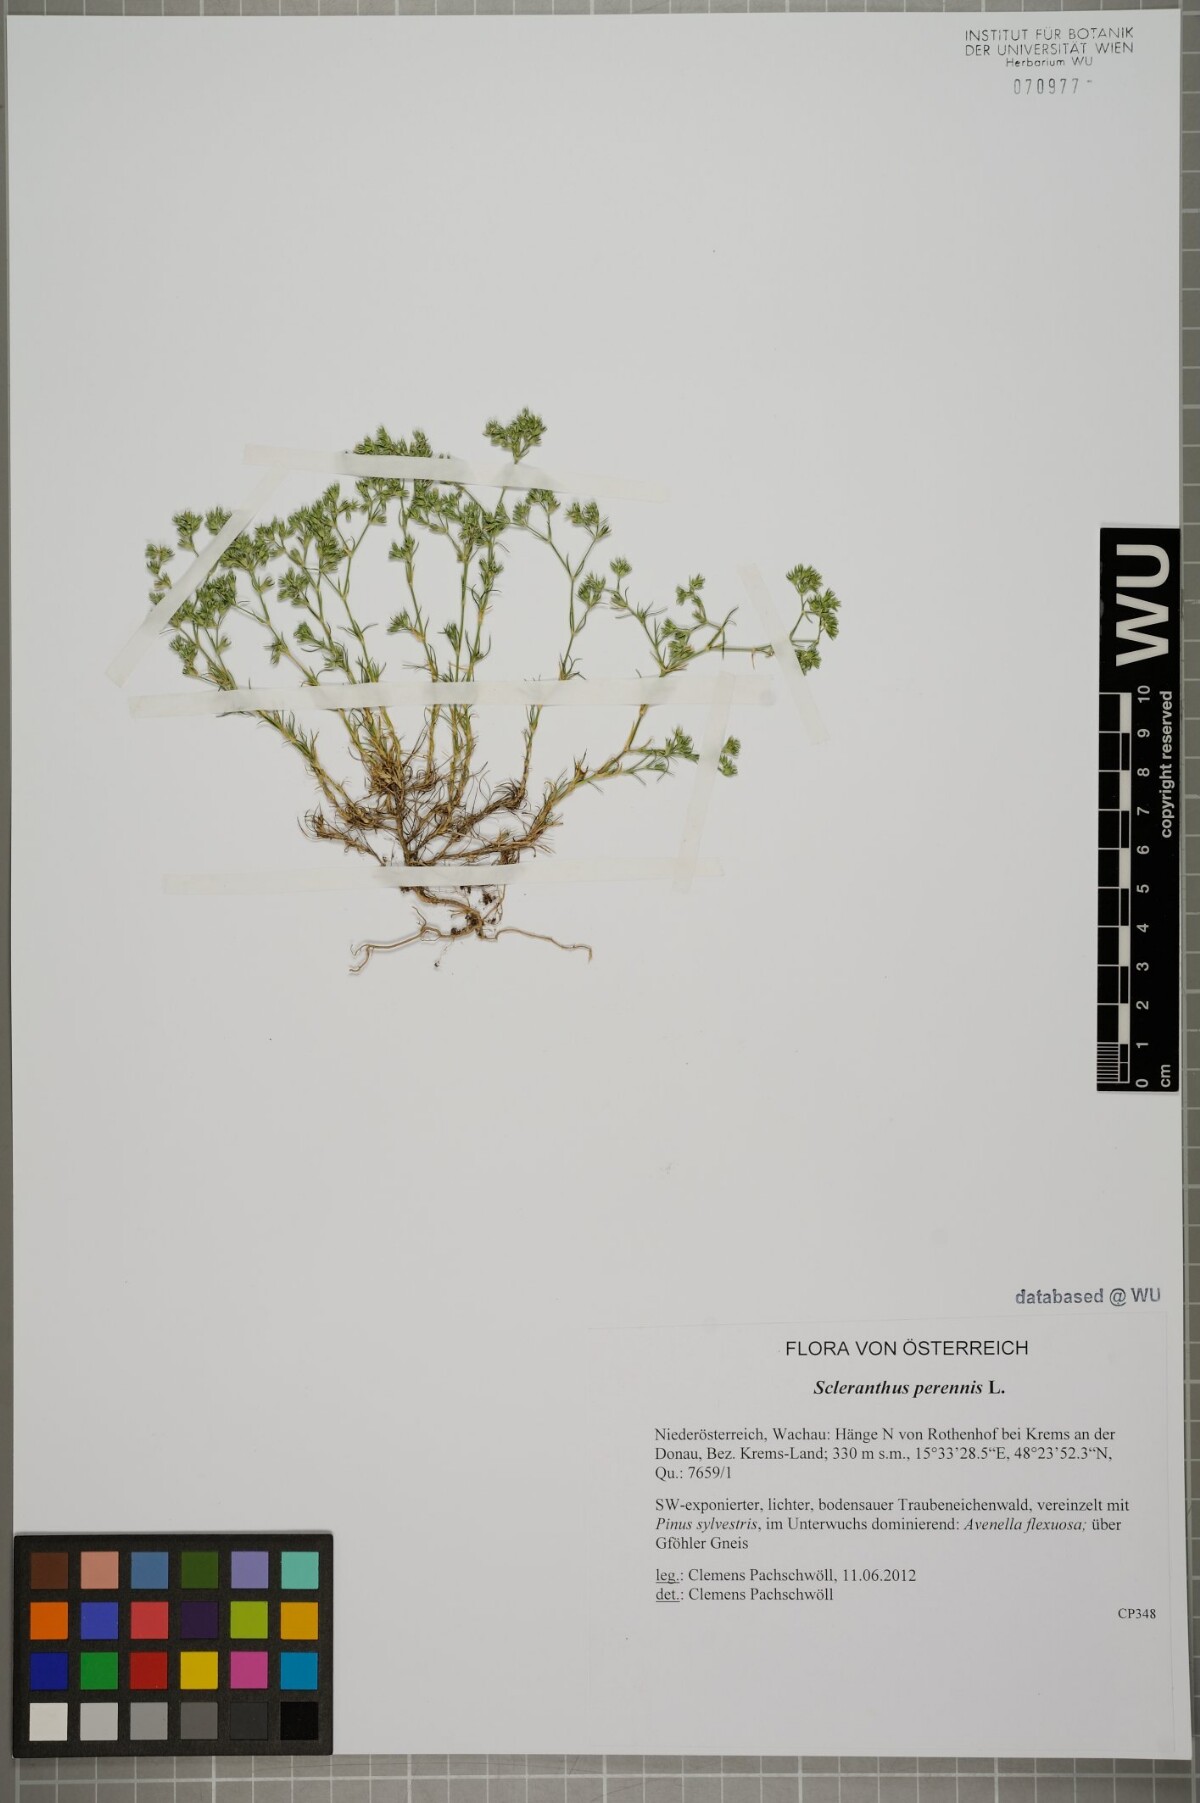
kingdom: Plantae
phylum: Tracheophyta
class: Magnoliopsida
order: Caryophyllales
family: Caryophyllaceae
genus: Scleranthus
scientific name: Scleranthus perennis
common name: Perennial knawel
